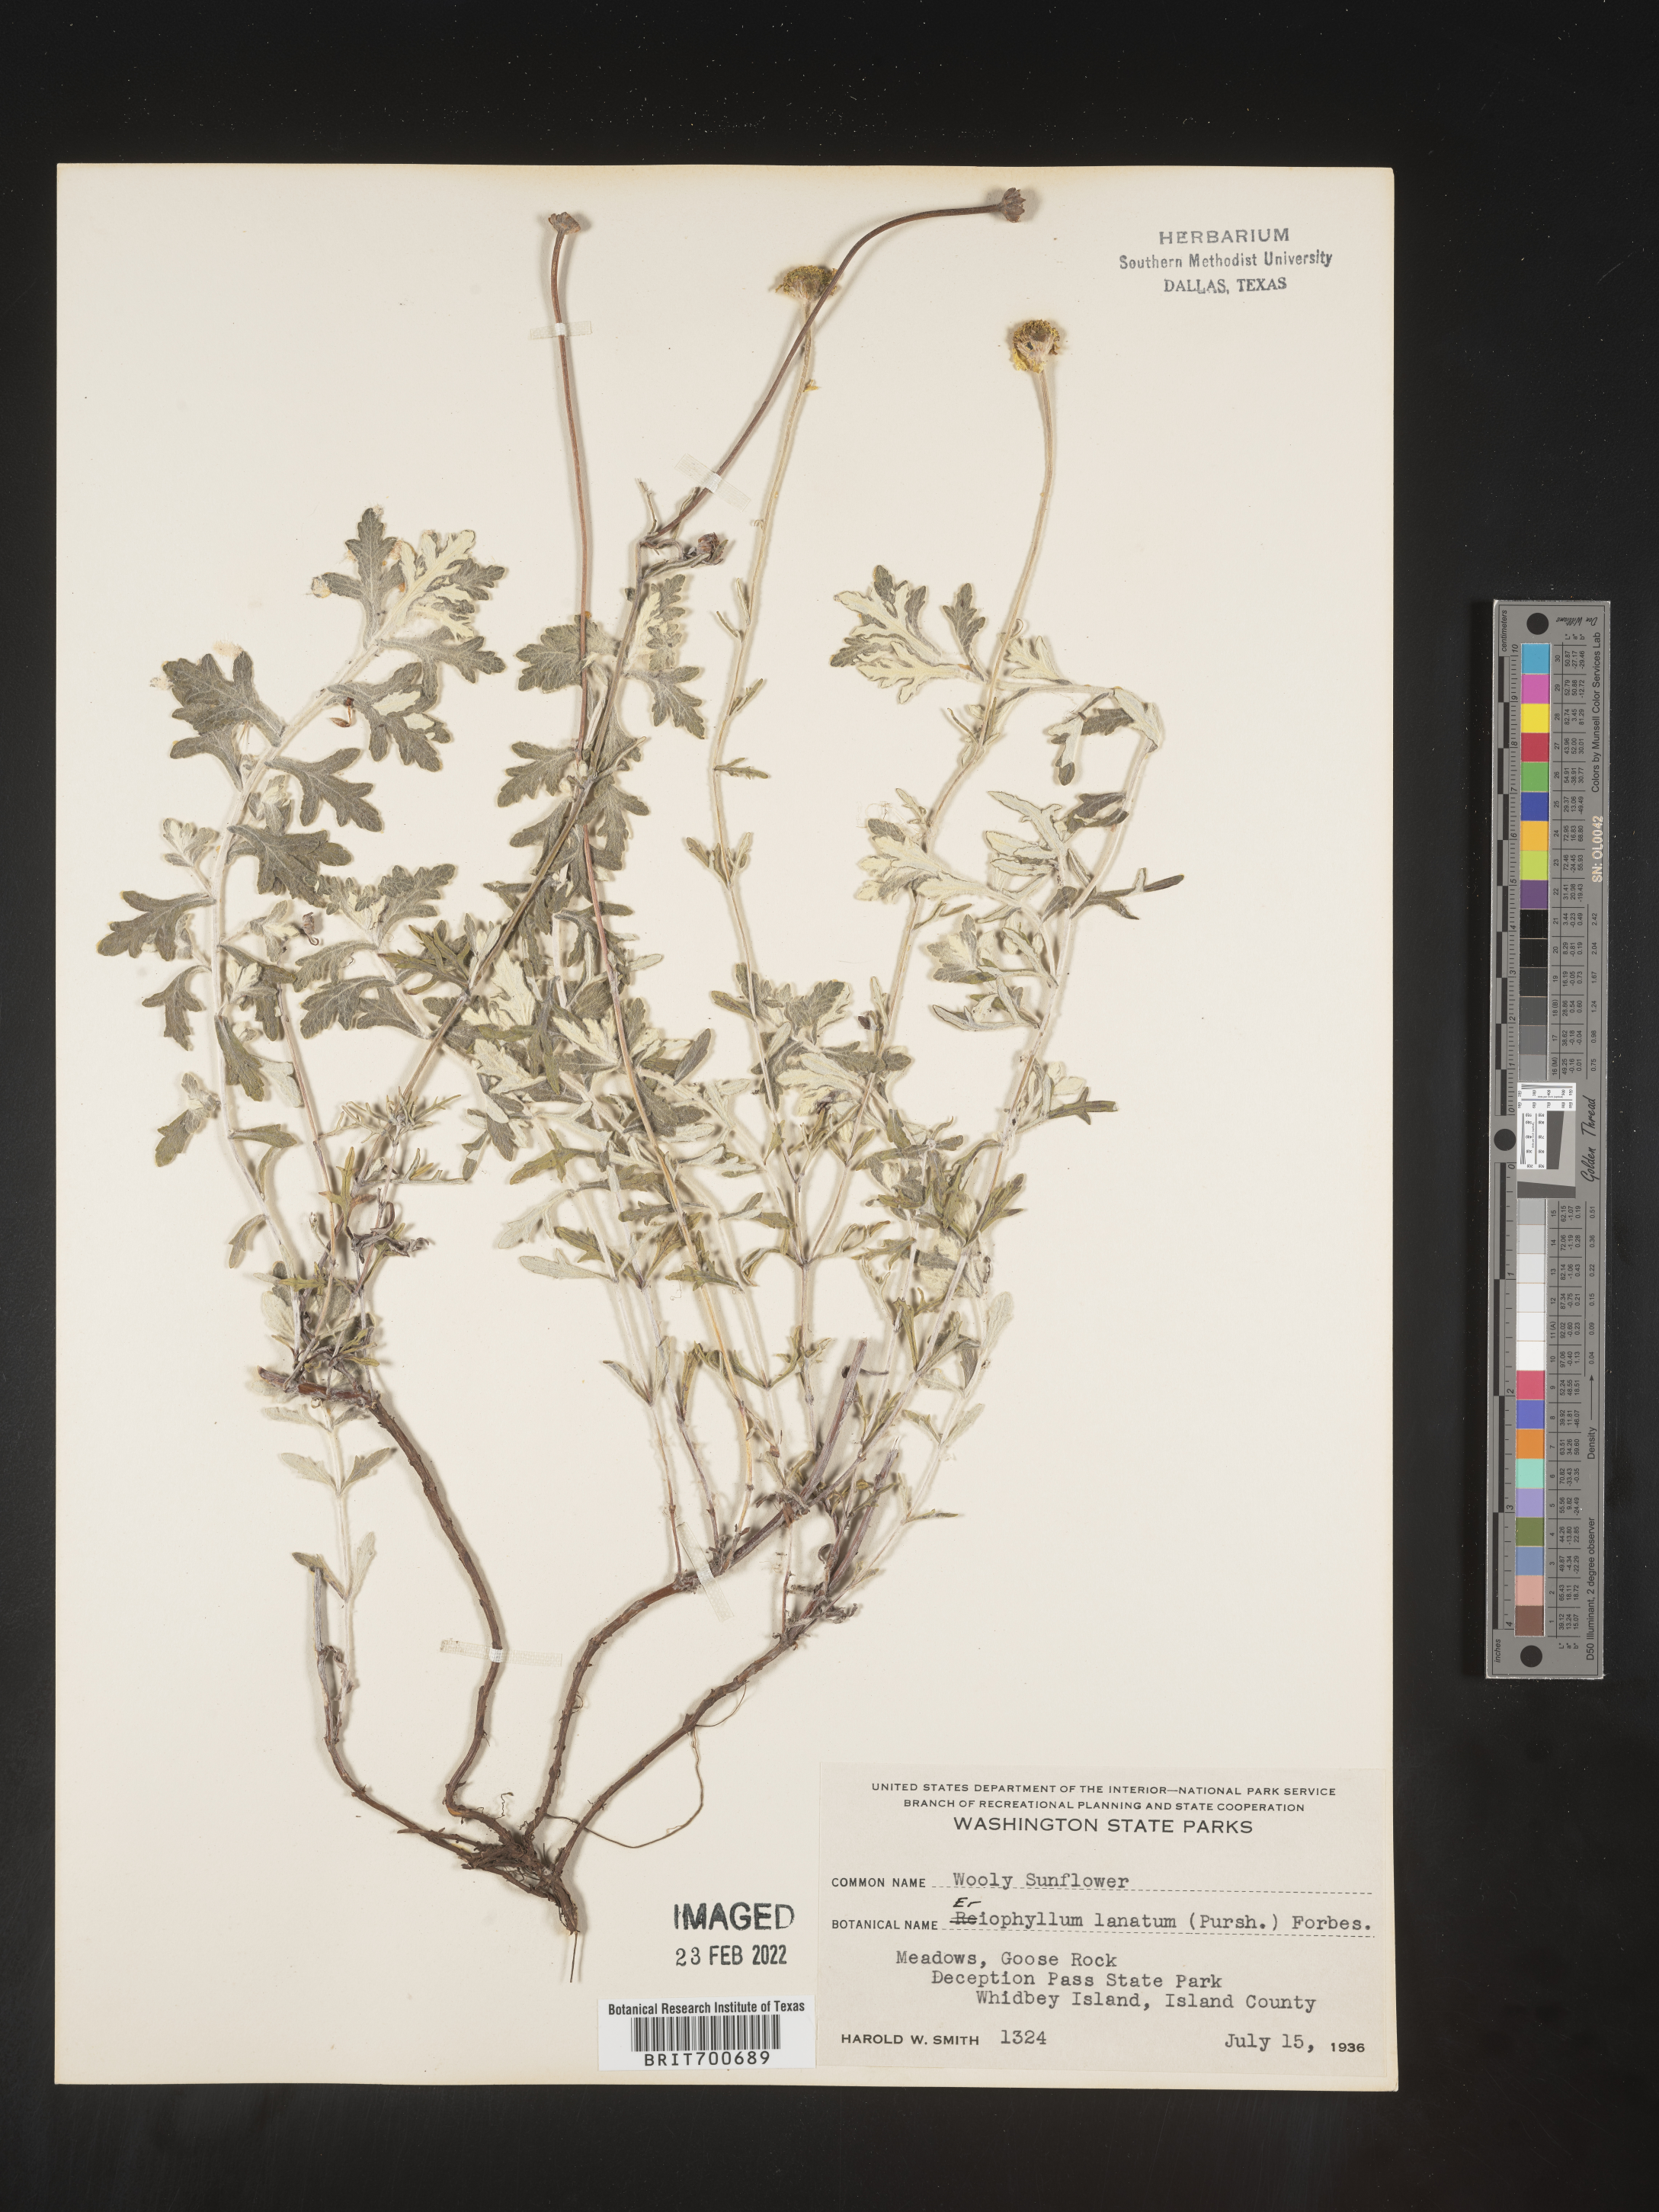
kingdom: Plantae
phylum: Tracheophyta
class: Magnoliopsida
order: Asterales
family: Asteraceae
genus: Eriophyllum
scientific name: Eriophyllum lanatum
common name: Common woolly-sunflower
